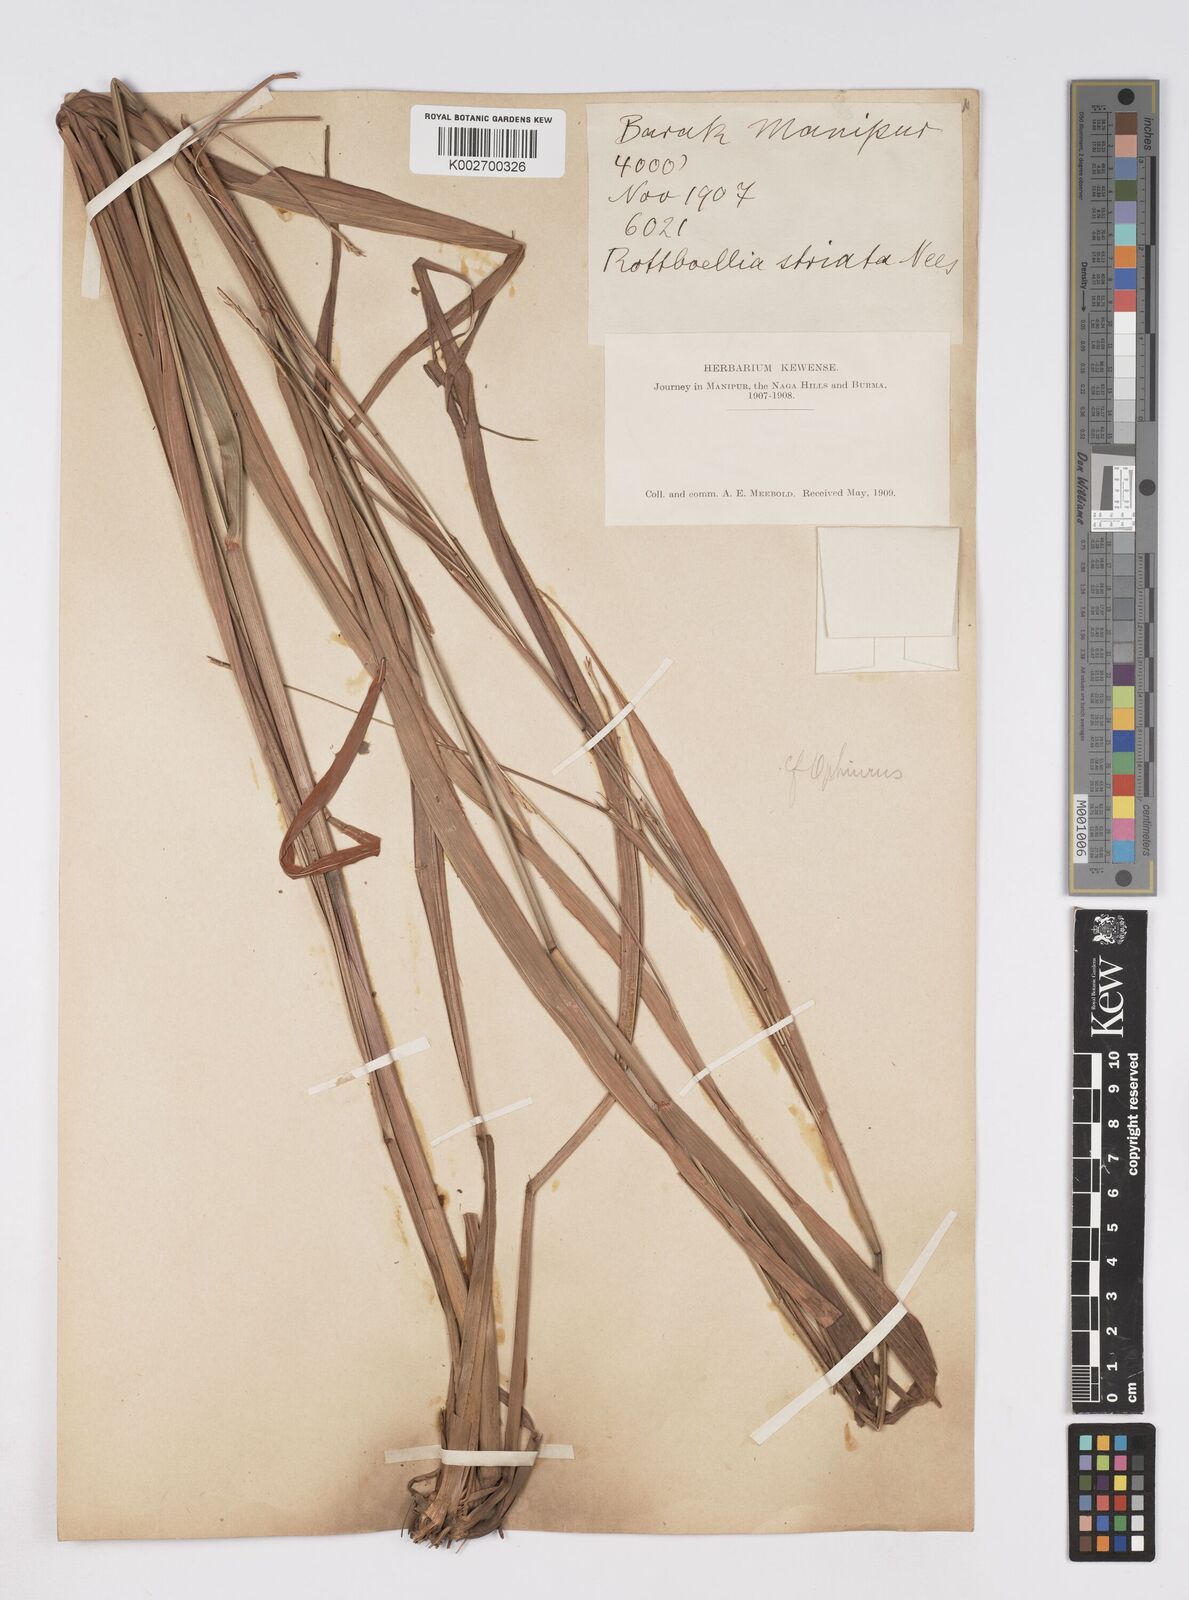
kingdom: Plantae
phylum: Tracheophyta
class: Liliopsida
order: Poales
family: Poaceae
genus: Rottboellia
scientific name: Rottboellia striata
